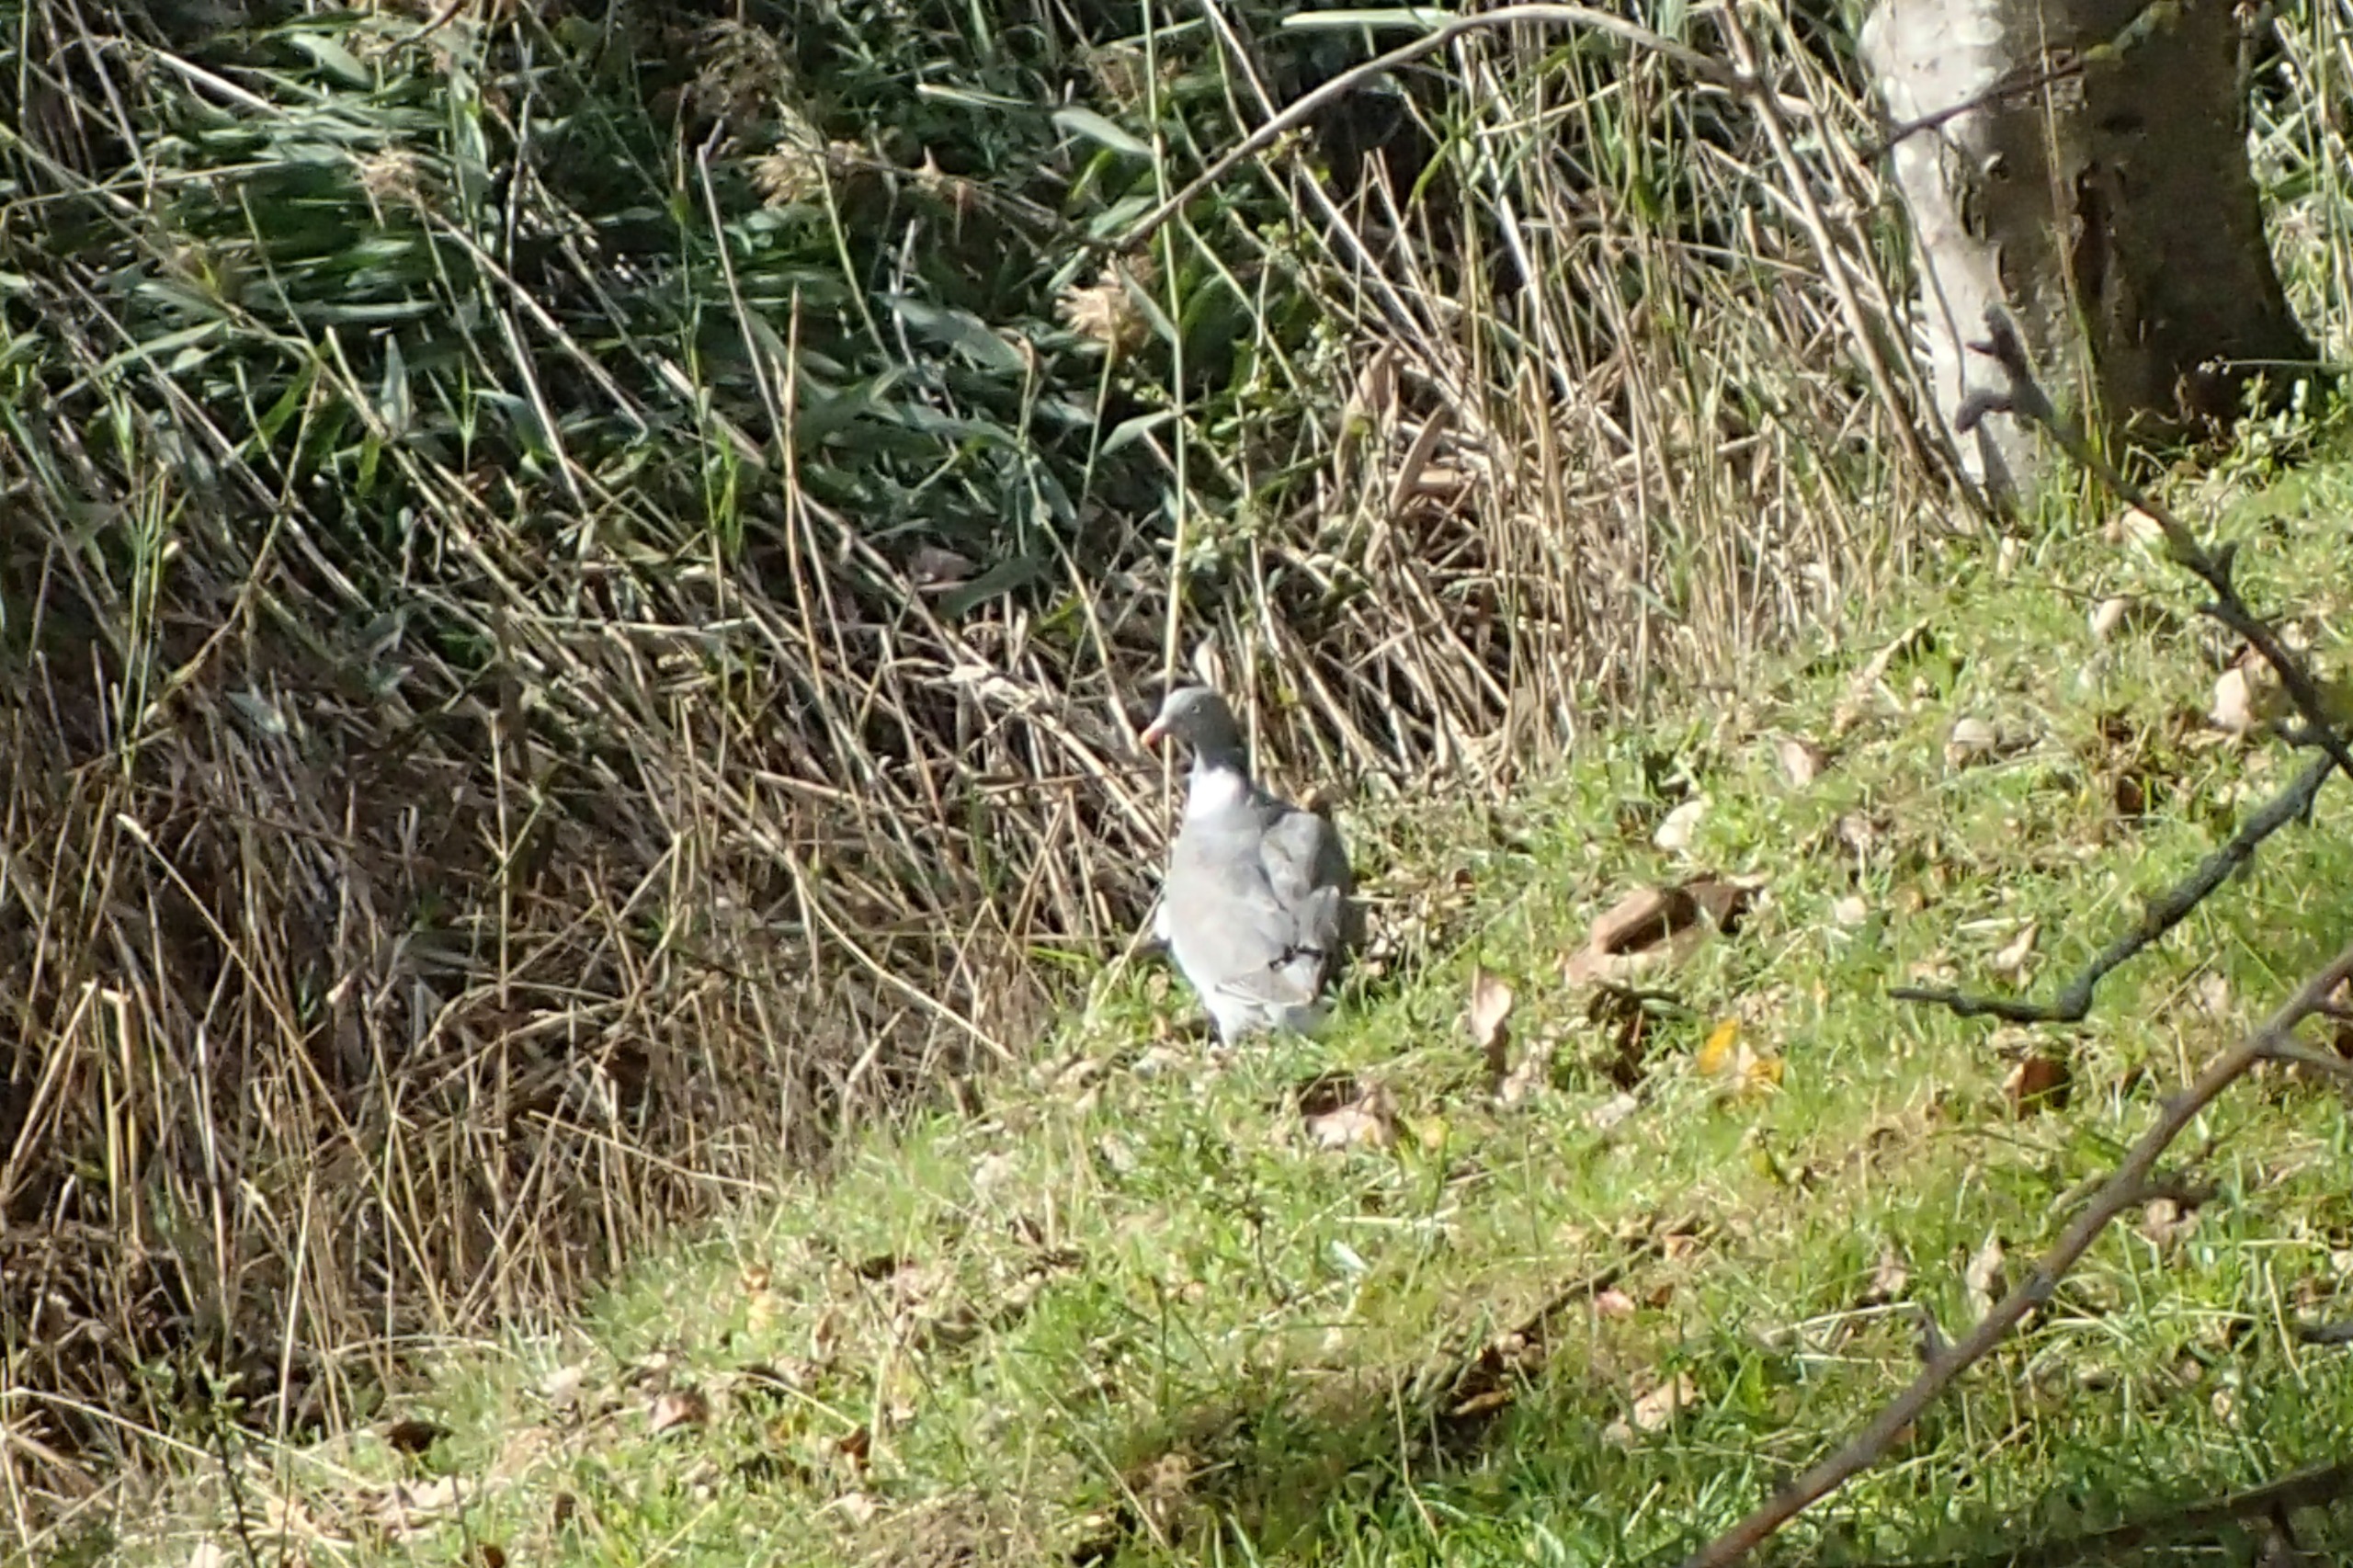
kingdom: Animalia
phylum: Chordata
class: Aves
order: Columbiformes
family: Columbidae
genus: Columba
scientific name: Columba palumbus
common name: Ringdue
